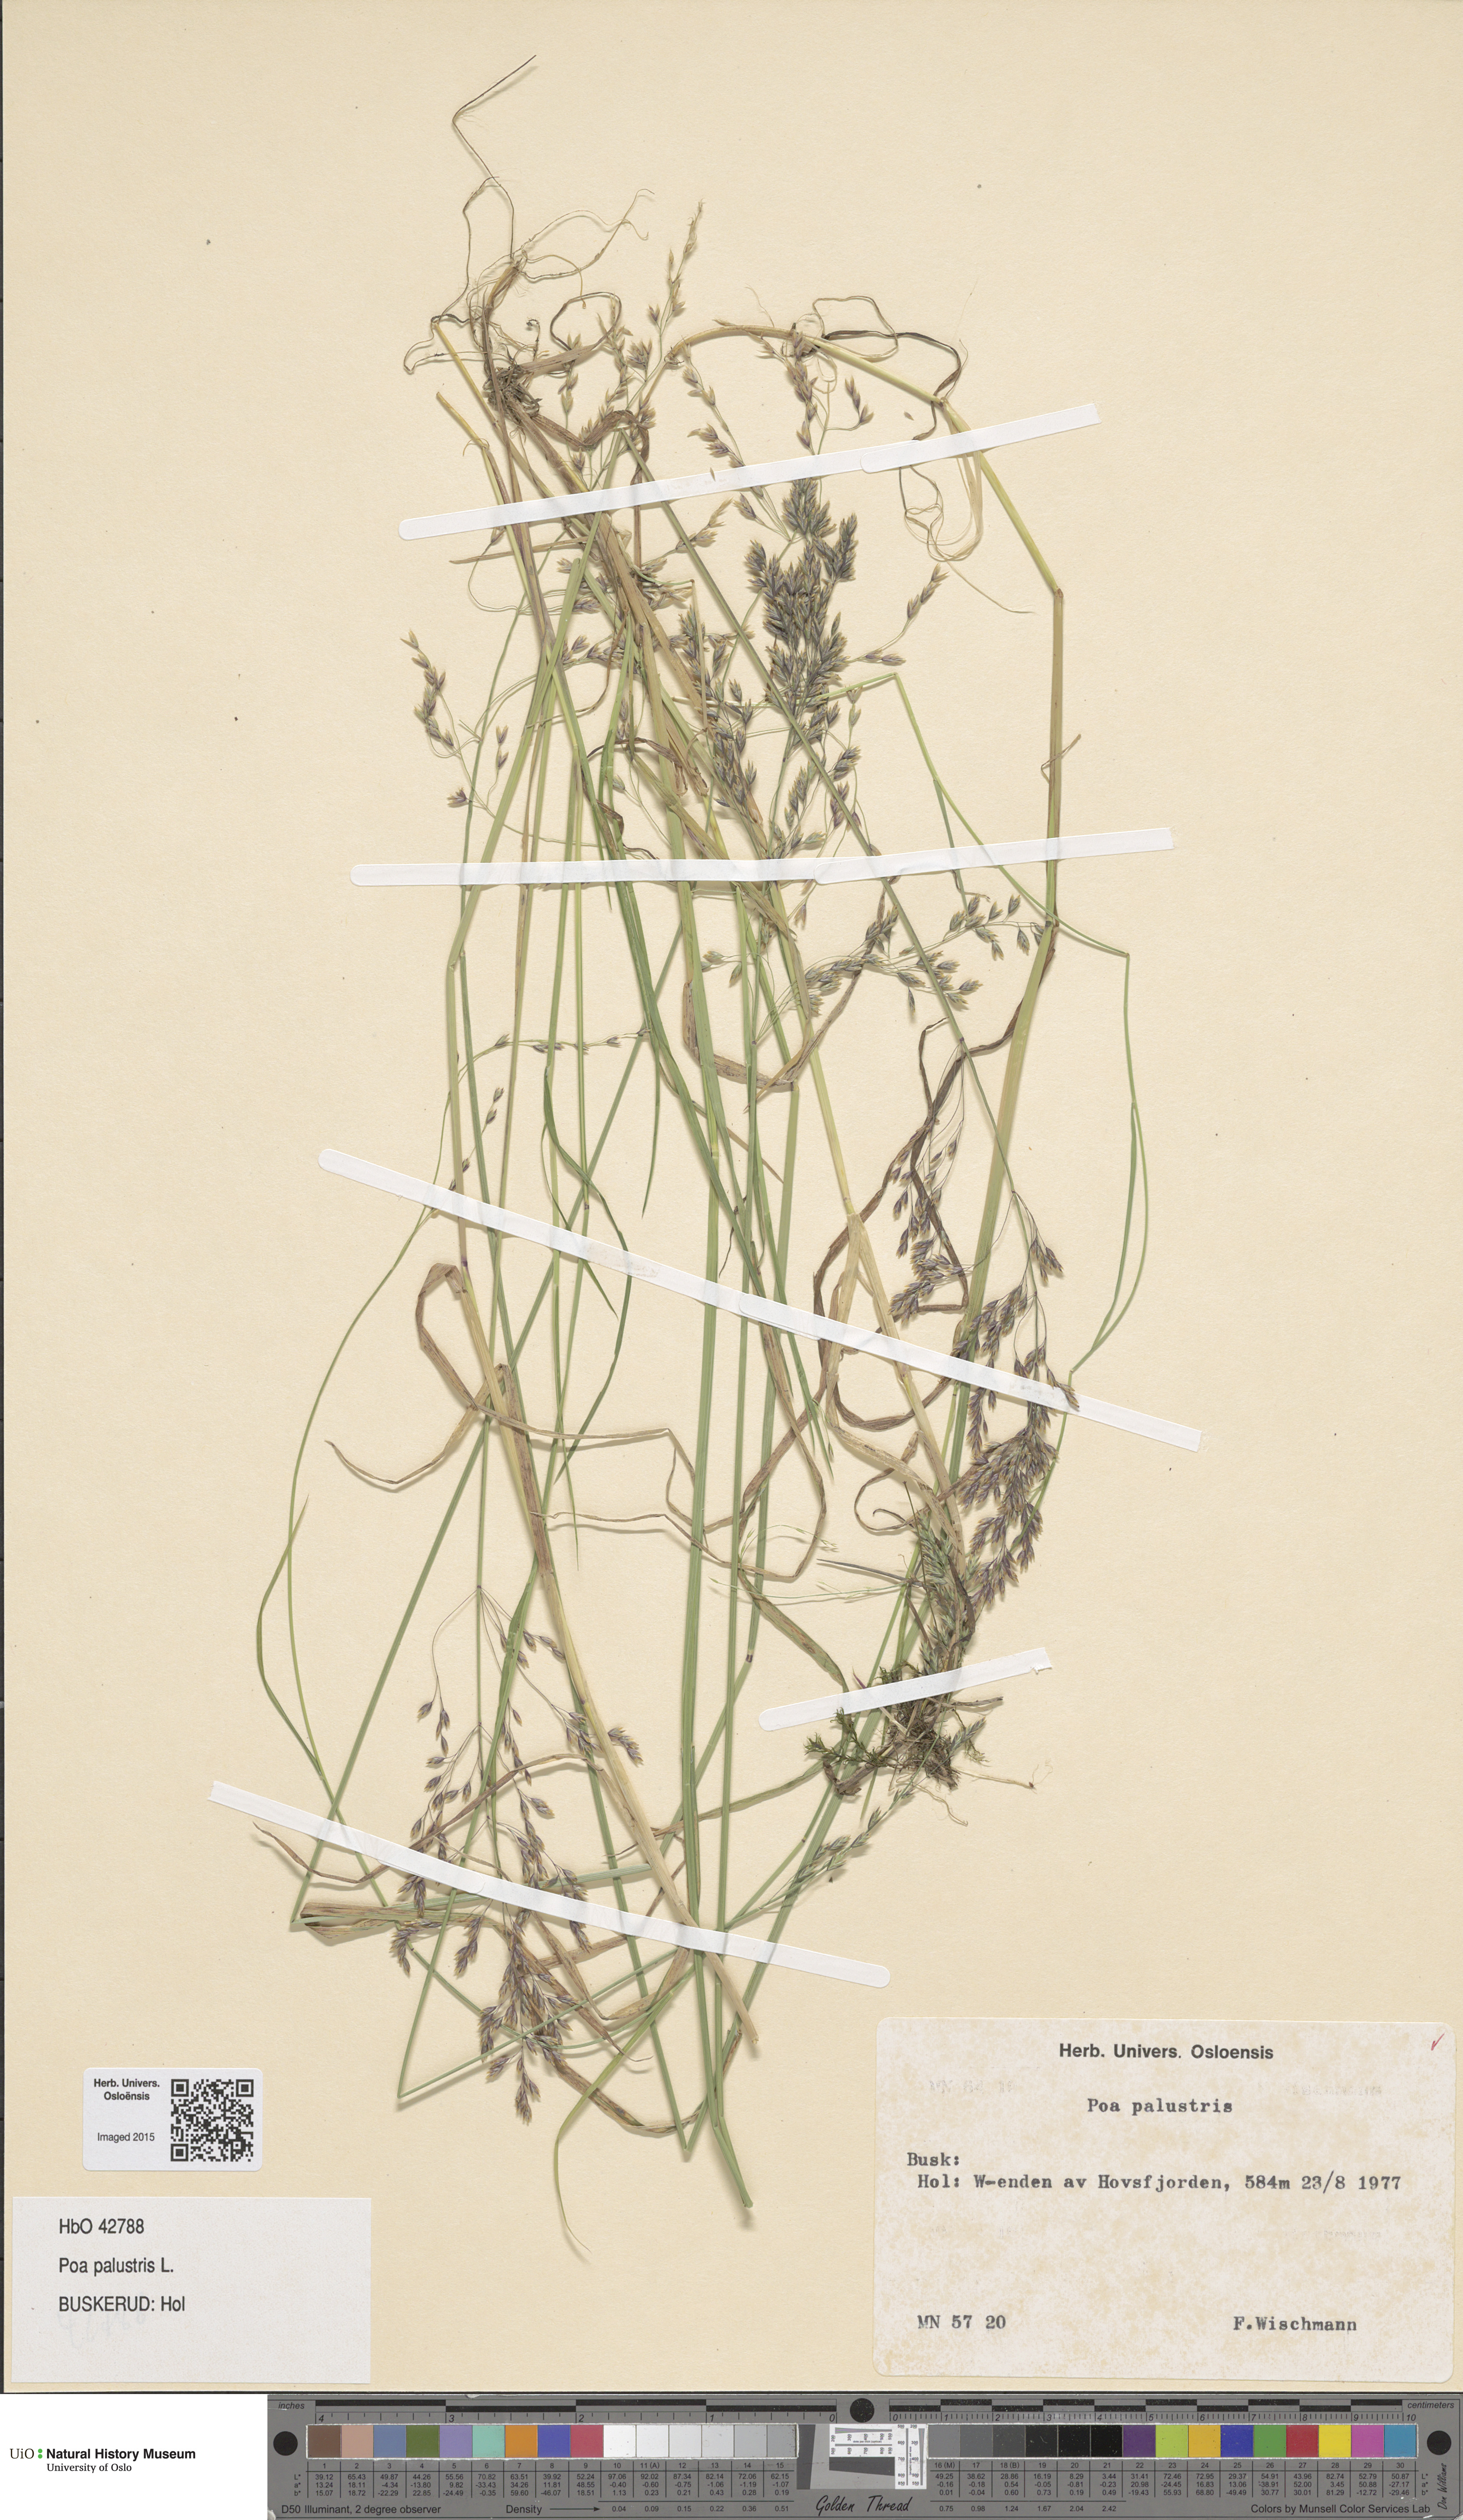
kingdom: Plantae
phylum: Tracheophyta
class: Liliopsida
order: Poales
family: Poaceae
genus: Poa
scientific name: Poa palustris
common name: Swamp meadow-grass
